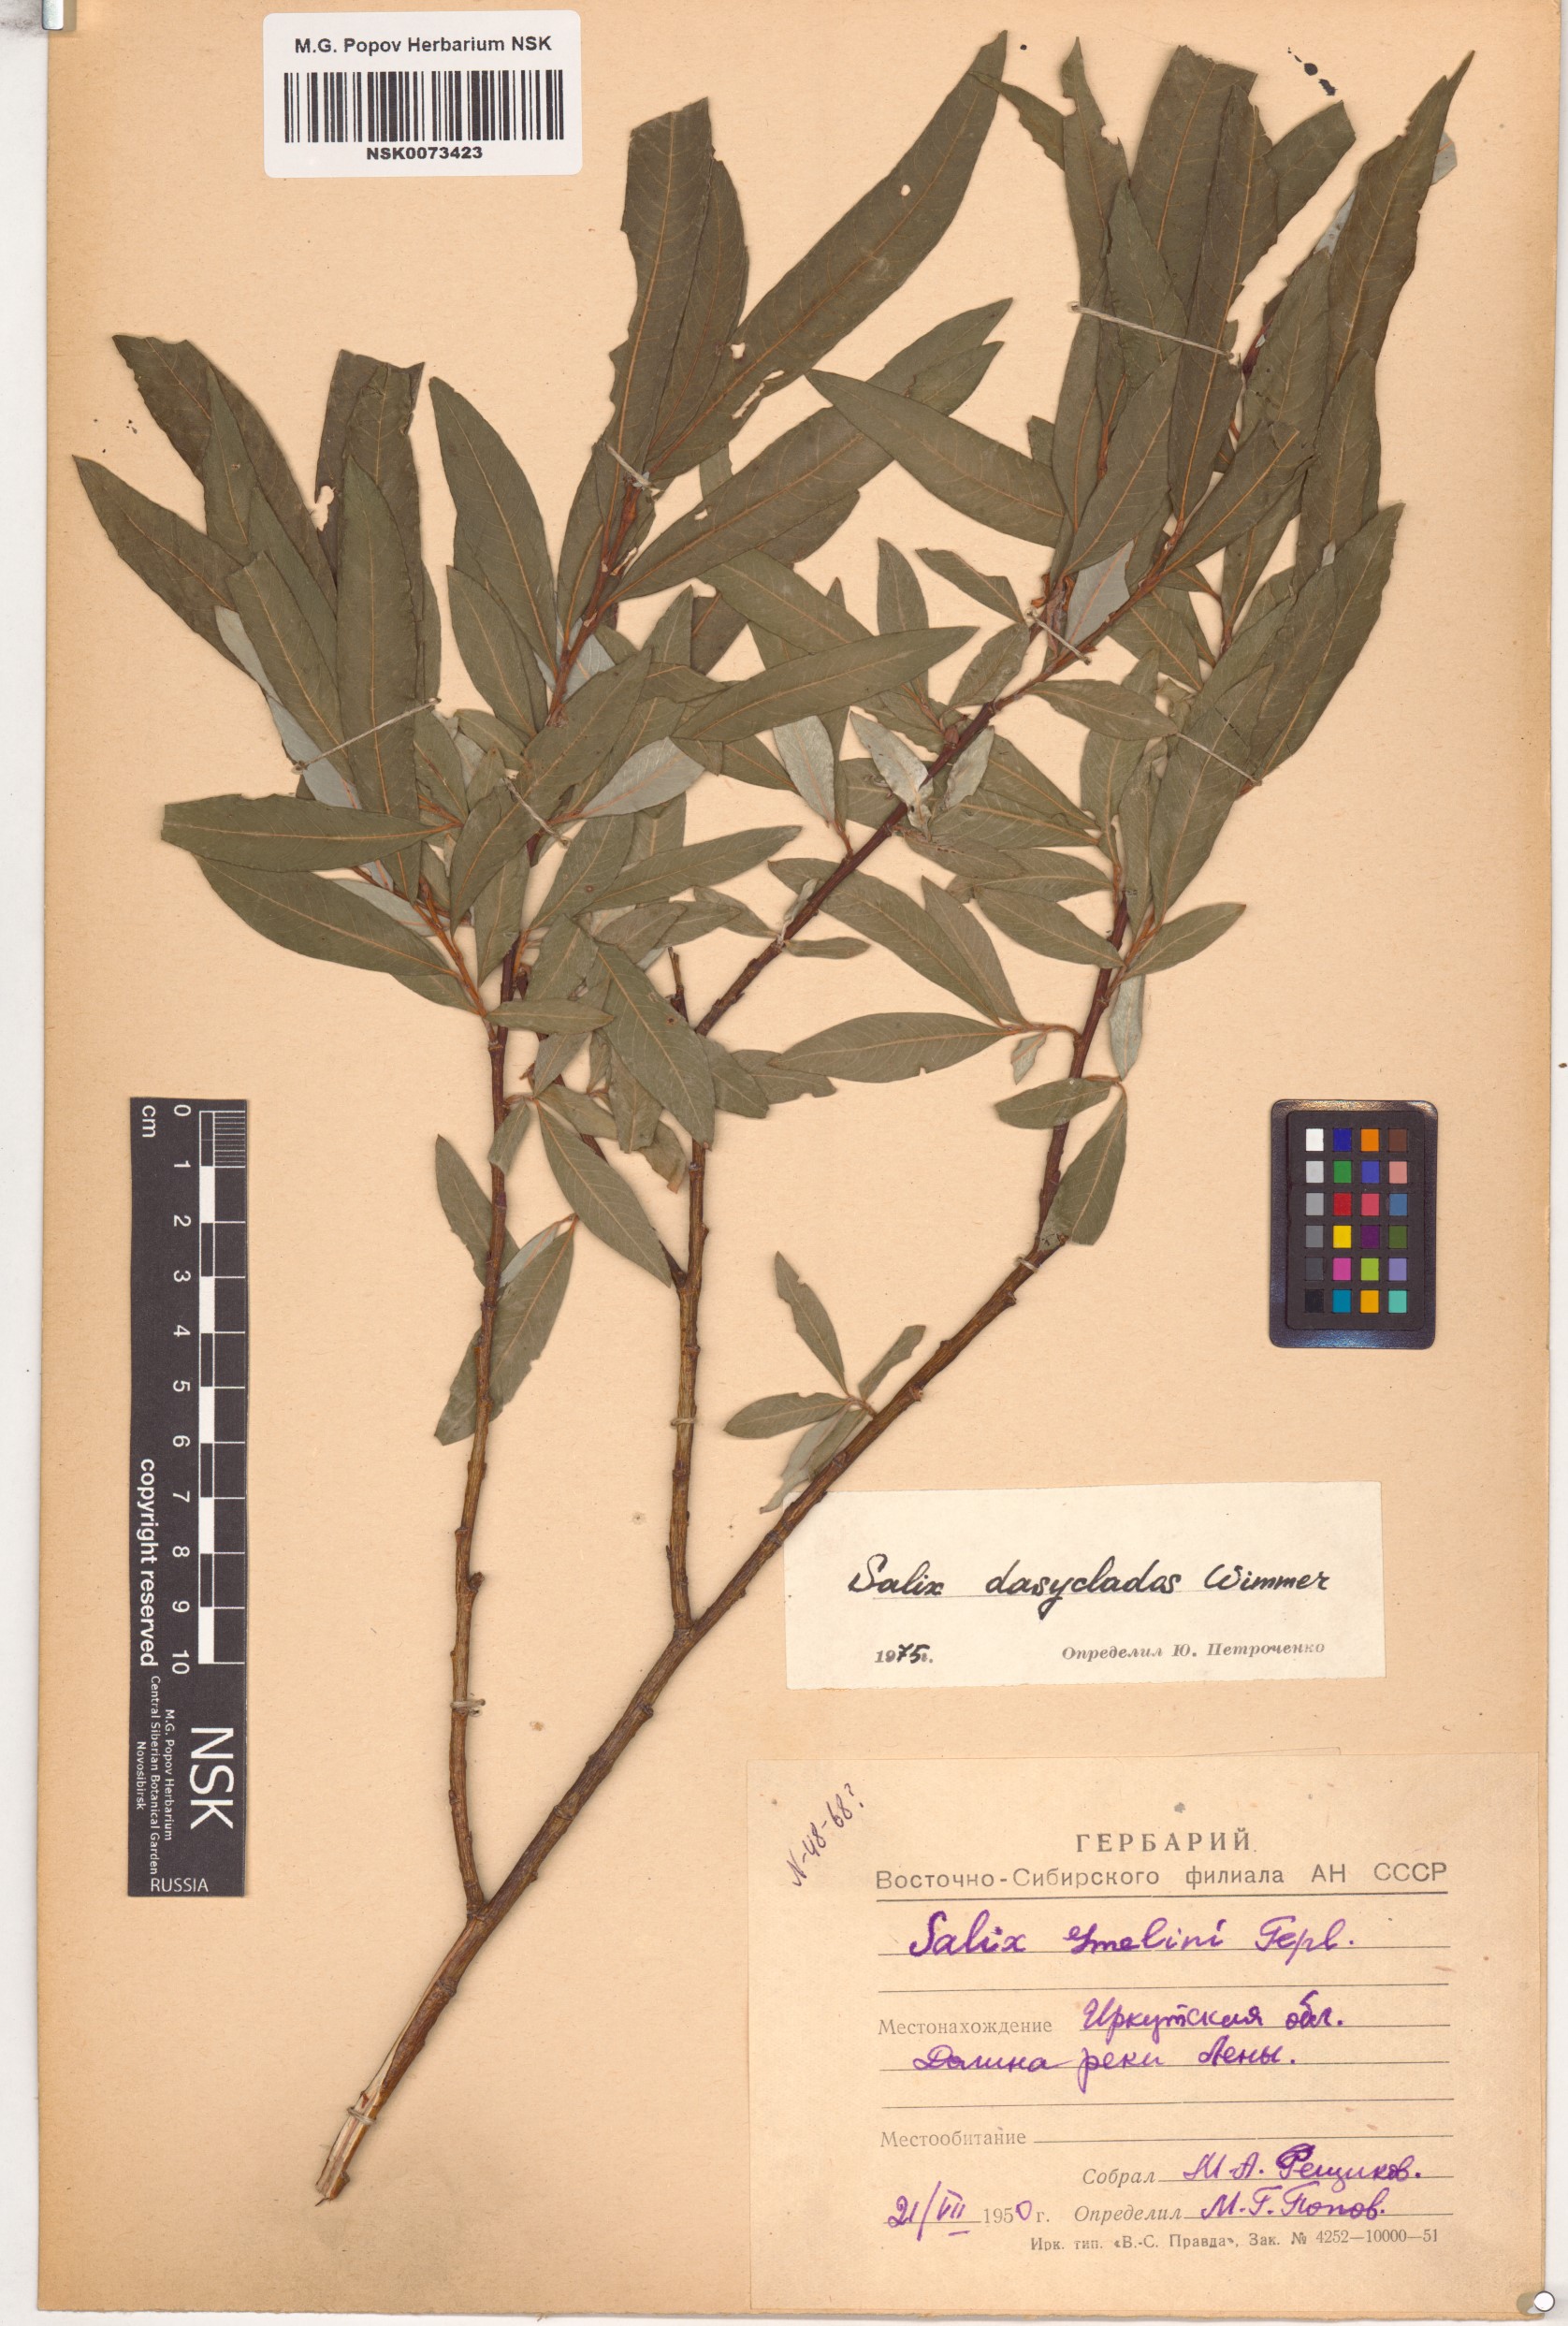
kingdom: Plantae
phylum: Tracheophyta
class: Magnoliopsida
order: Malpighiales
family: Salicaceae
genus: Salix
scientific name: Salix gmelinii
